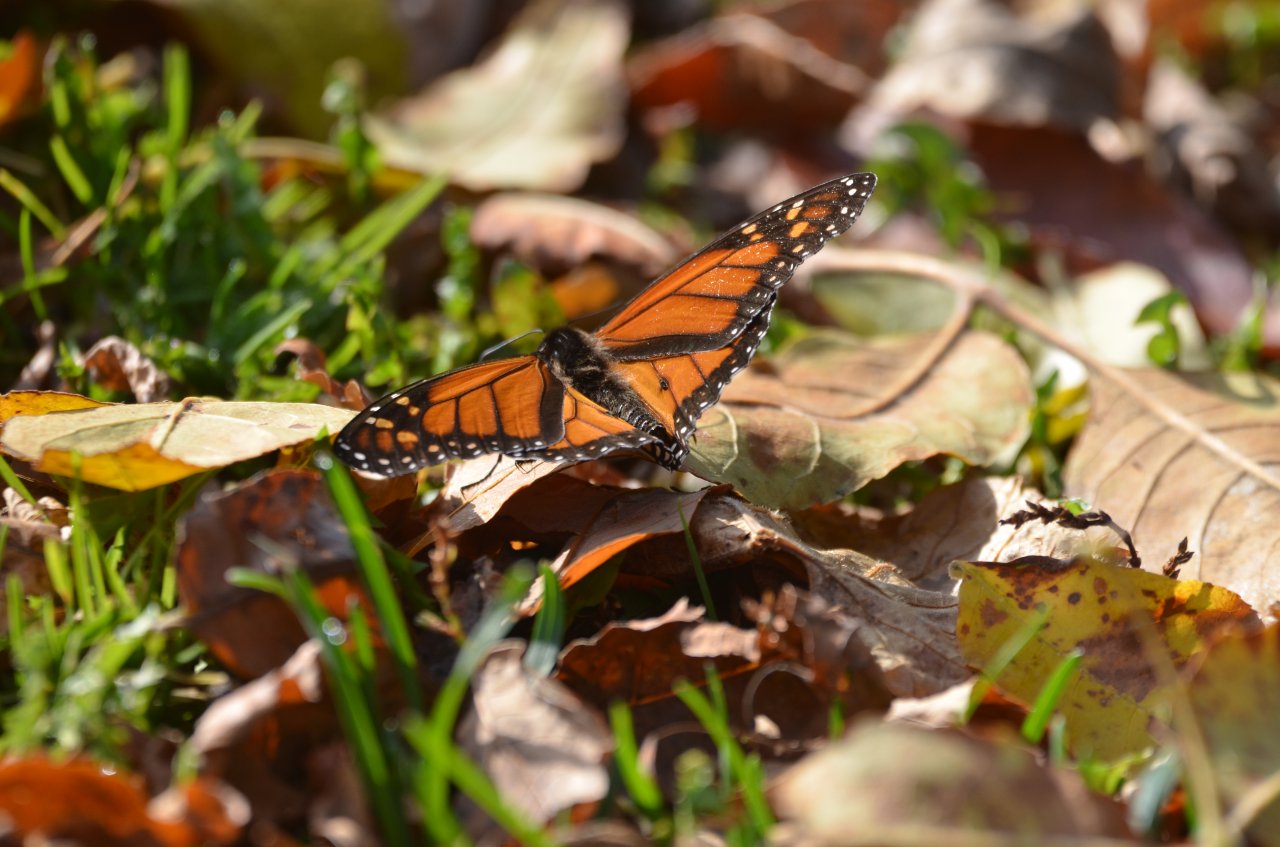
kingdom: Animalia
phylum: Arthropoda
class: Insecta
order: Lepidoptera
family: Nymphalidae
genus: Danaus
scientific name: Danaus plexippus
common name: Monarch
